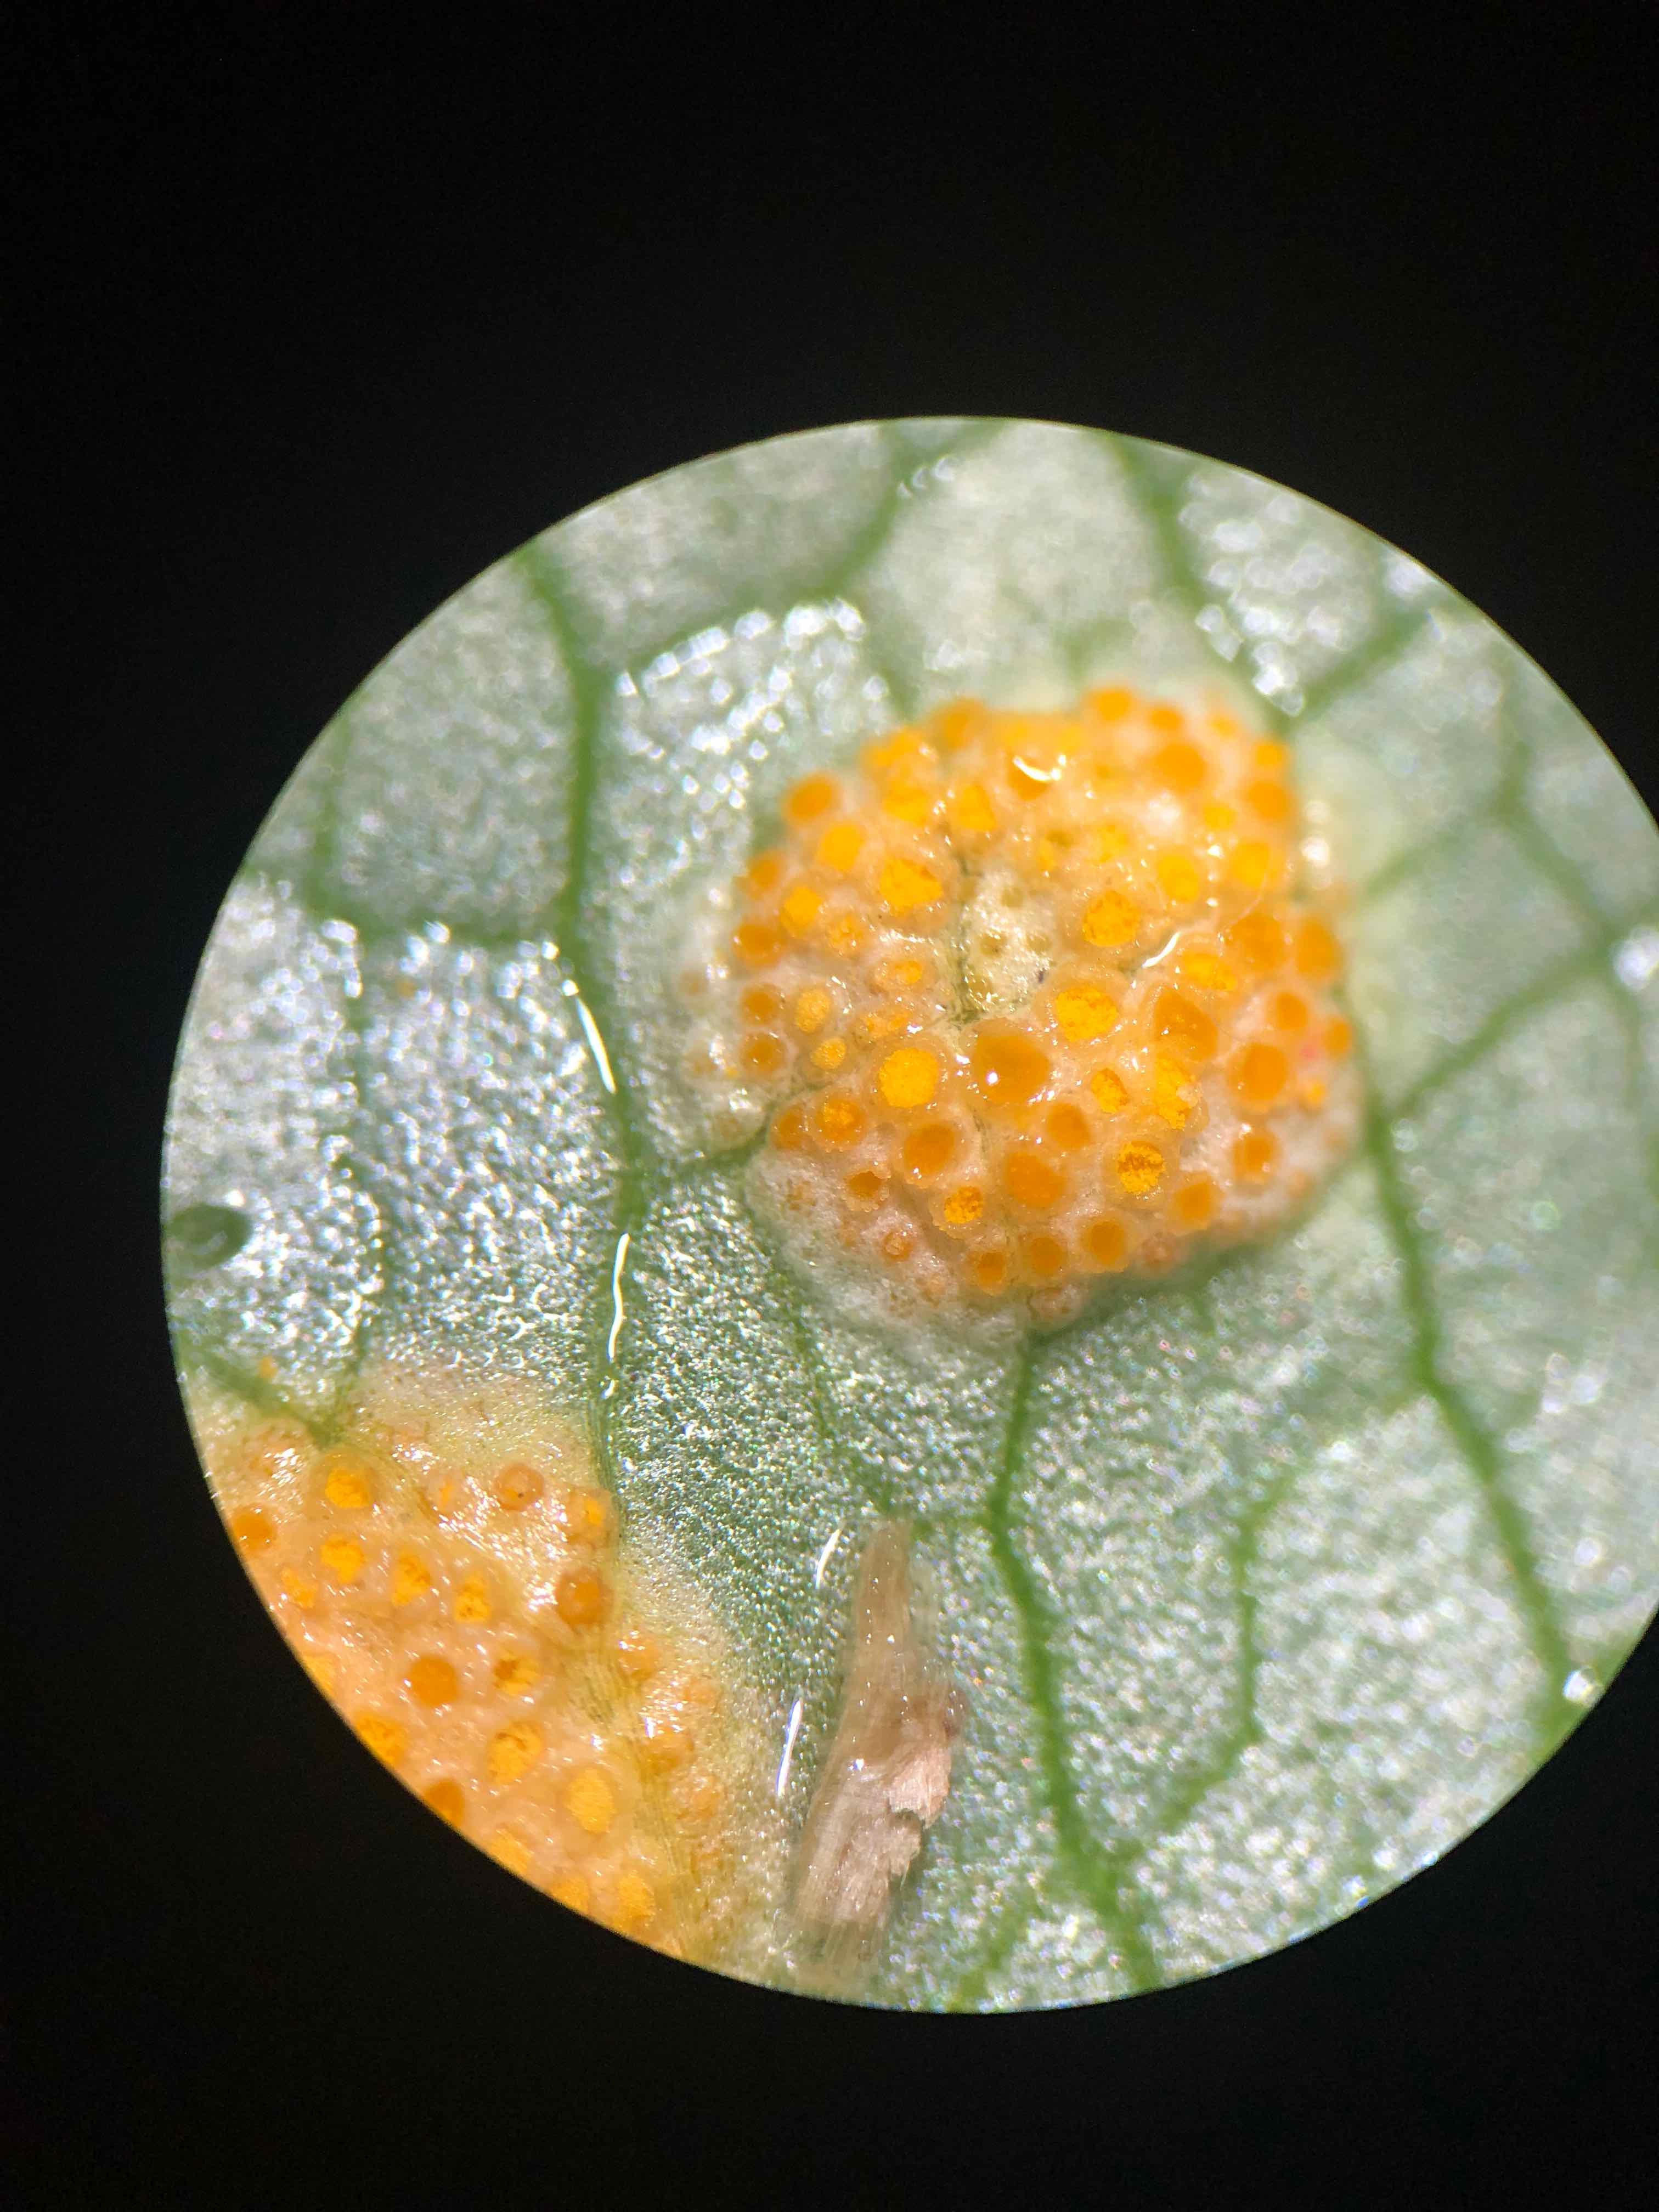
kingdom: Fungi
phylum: Basidiomycota
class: Pucciniomycetes
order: Pucciniales
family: Pucciniaceae
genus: Uromyces
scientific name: Uromyces dactylidis
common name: ranunkel-encellerust
